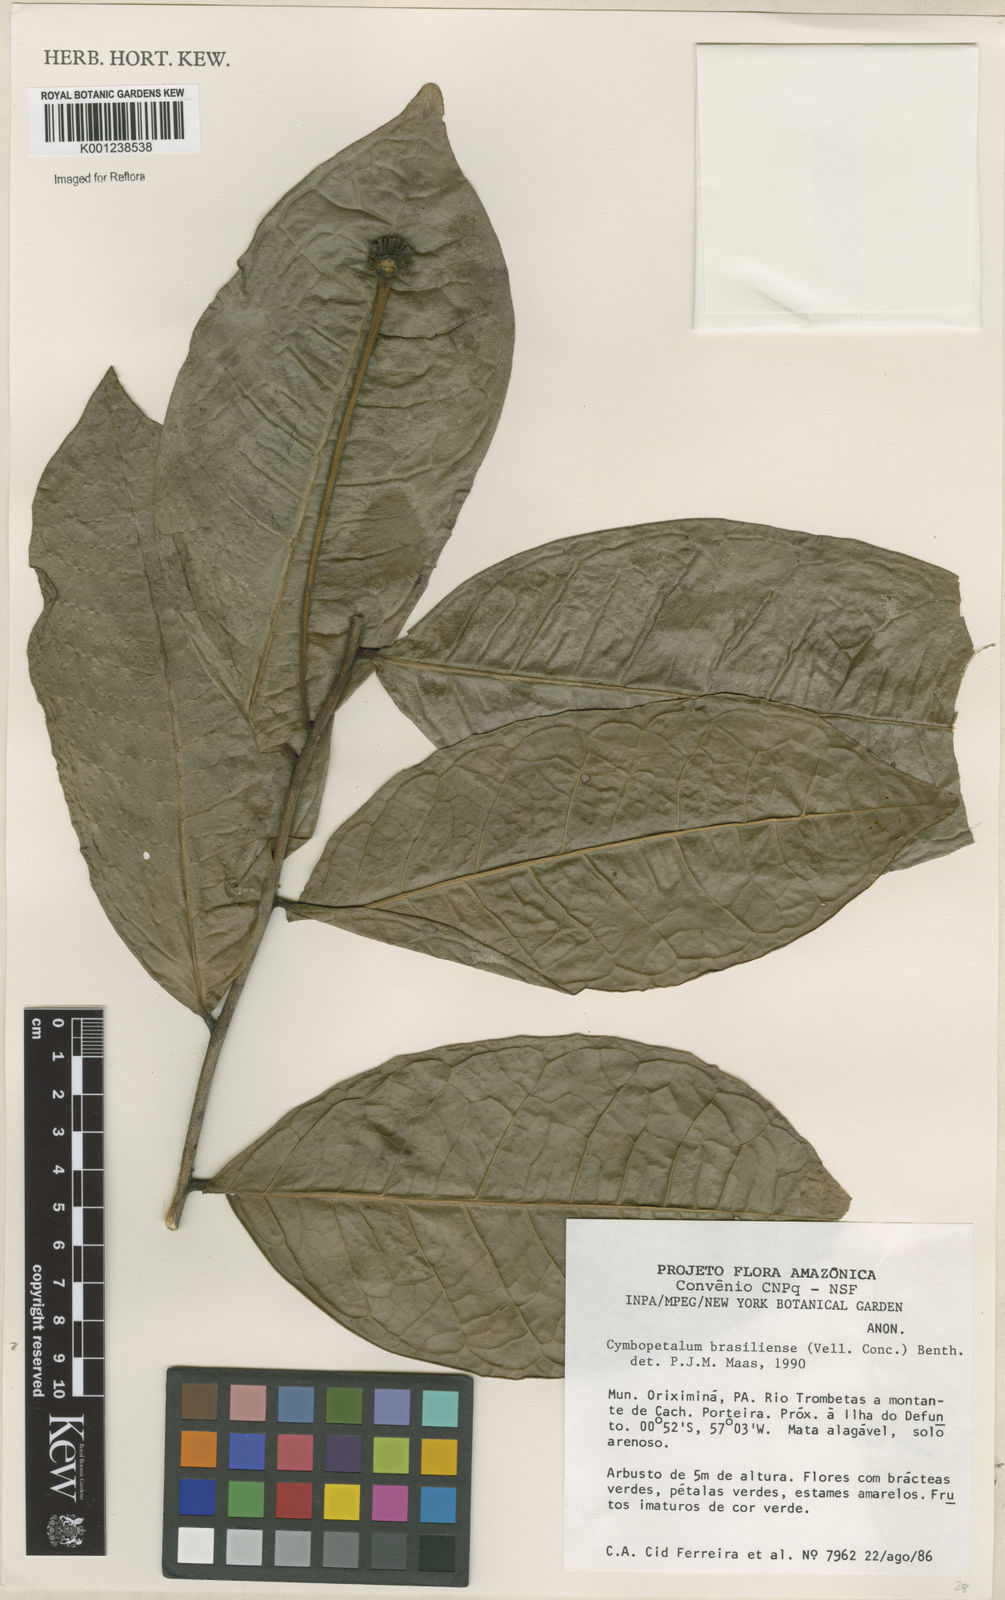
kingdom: Plantae
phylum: Tracheophyta
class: Magnoliopsida
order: Magnoliales
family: Annonaceae
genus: Cymbopetalum
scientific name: Cymbopetalum brasiliense
